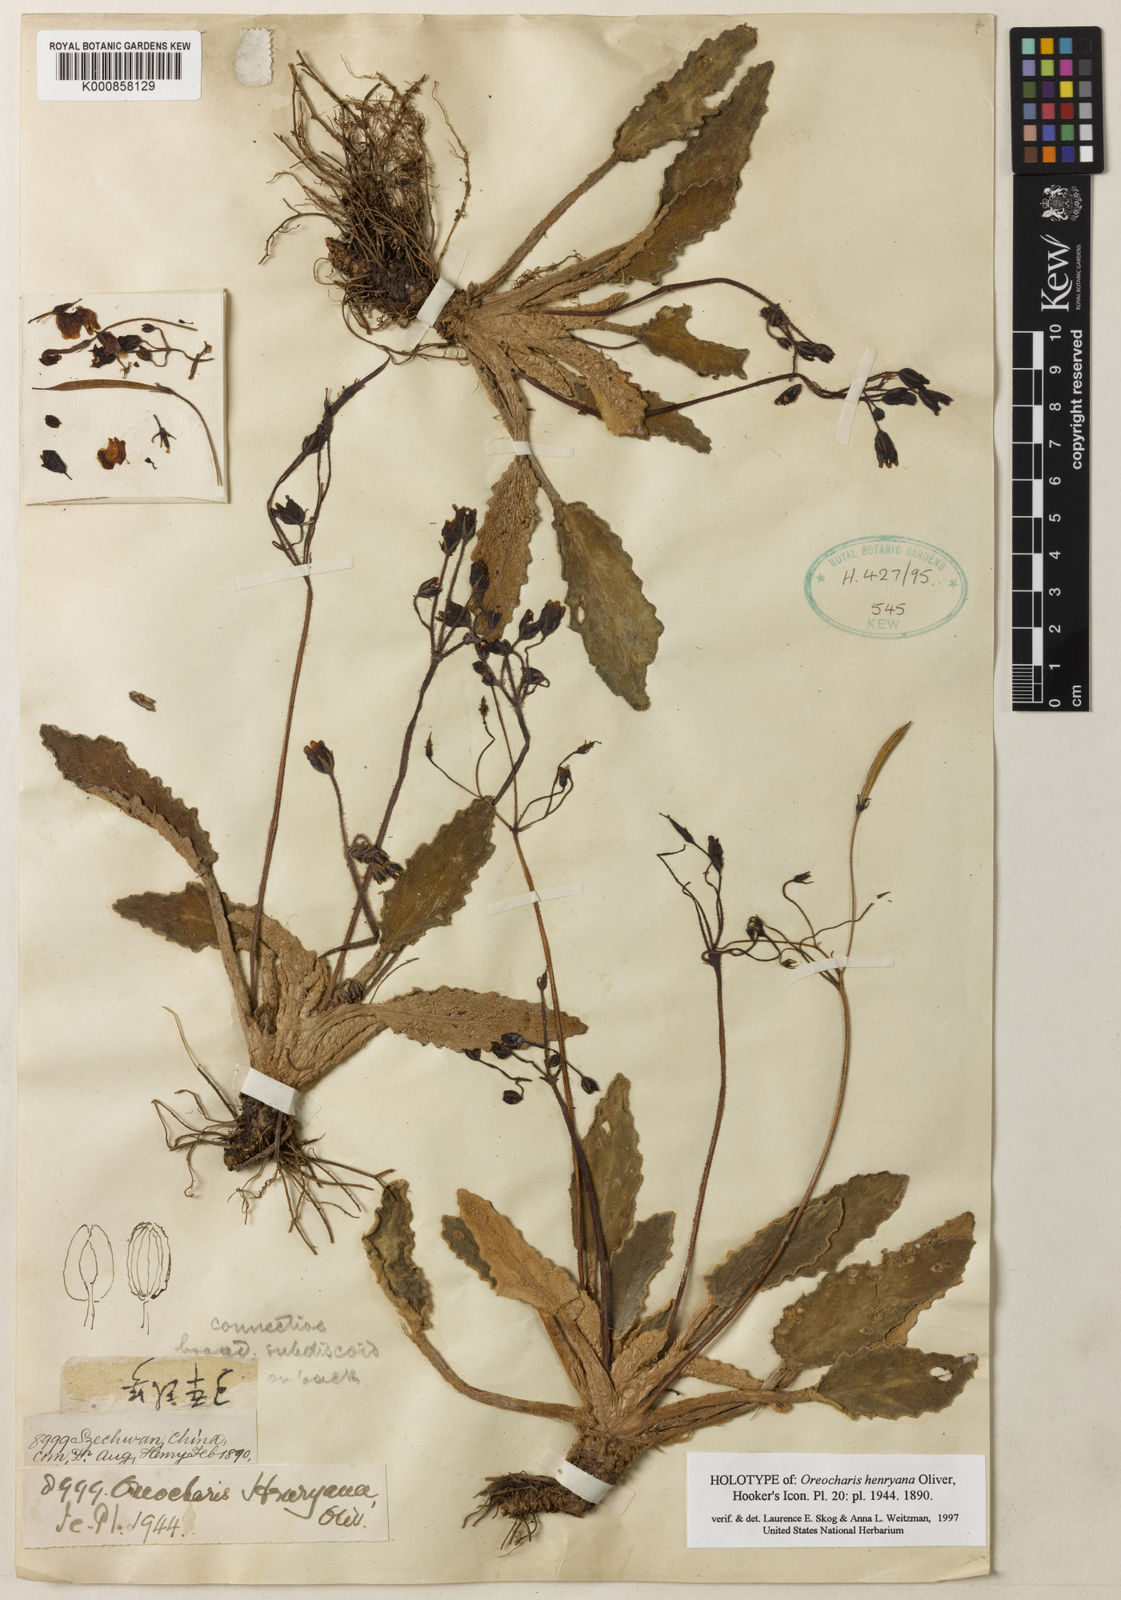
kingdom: Plantae
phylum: Tracheophyta
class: Magnoliopsida
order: Lamiales
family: Gesneriaceae
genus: Oreocharis
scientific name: Oreocharis henryana
